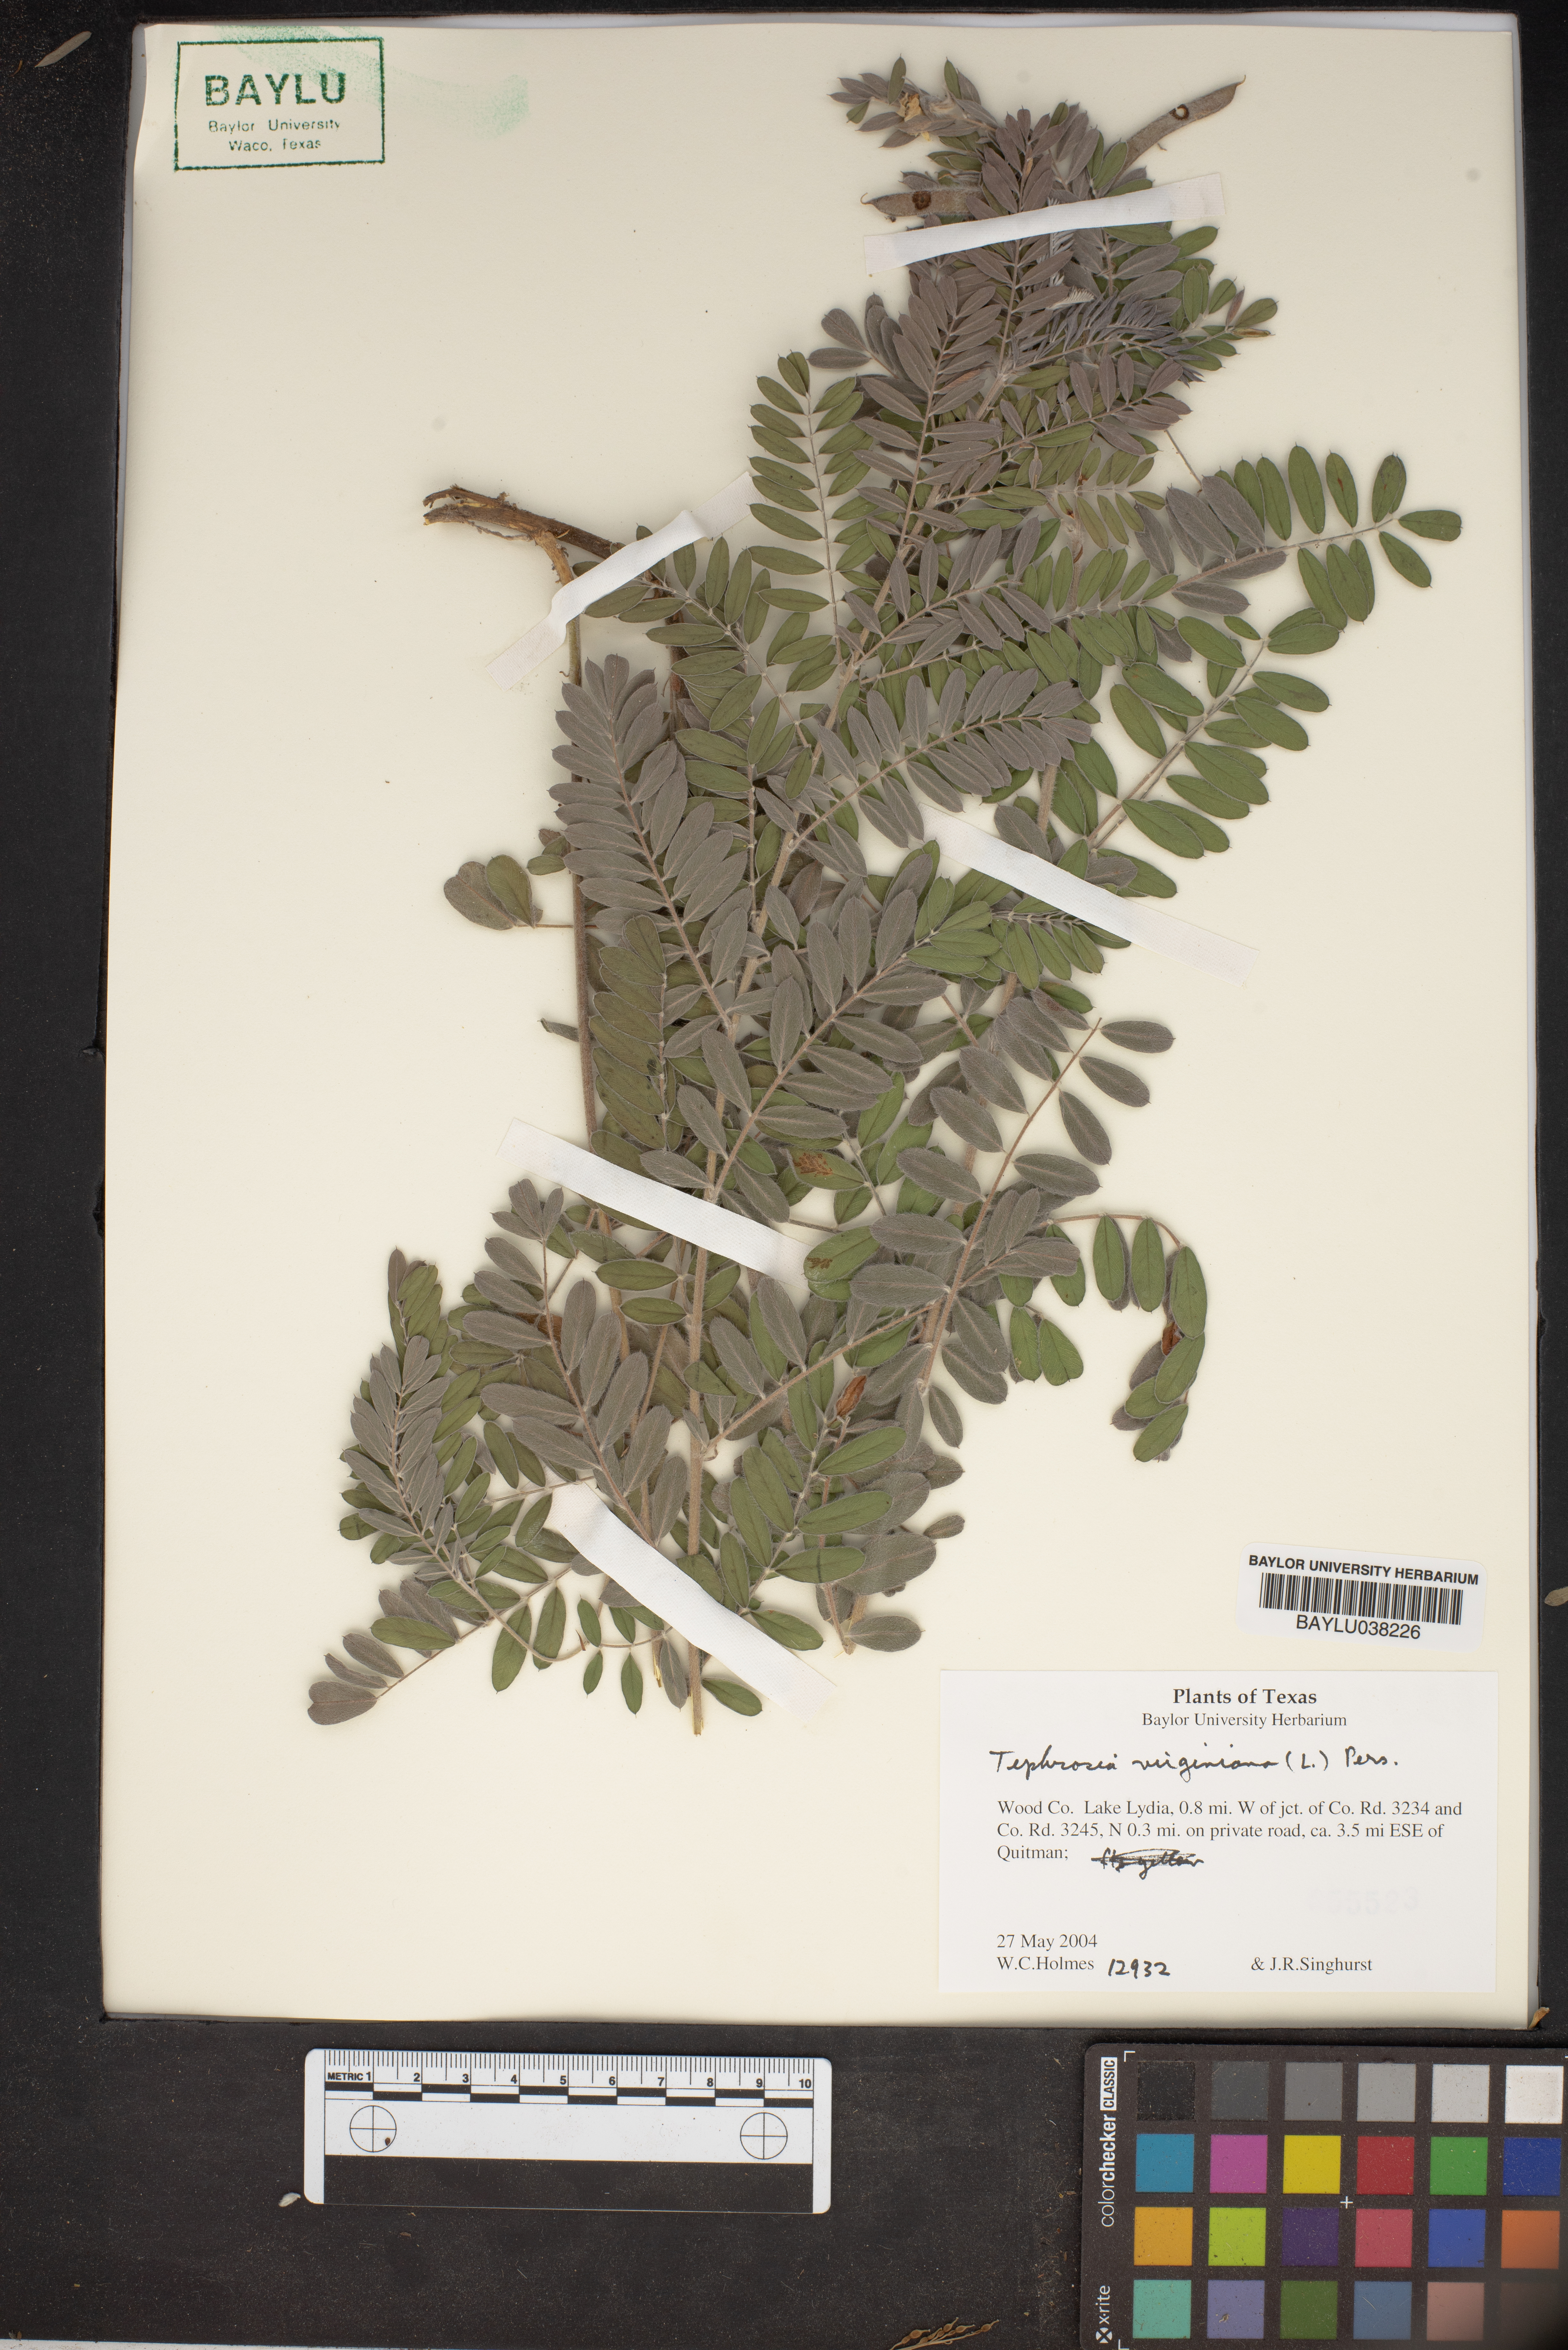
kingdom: Plantae
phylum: Tracheophyta
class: Magnoliopsida
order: Fabales
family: Fabaceae
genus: Tephrosia
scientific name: Tephrosia virginiana
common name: Rabbit-pea
